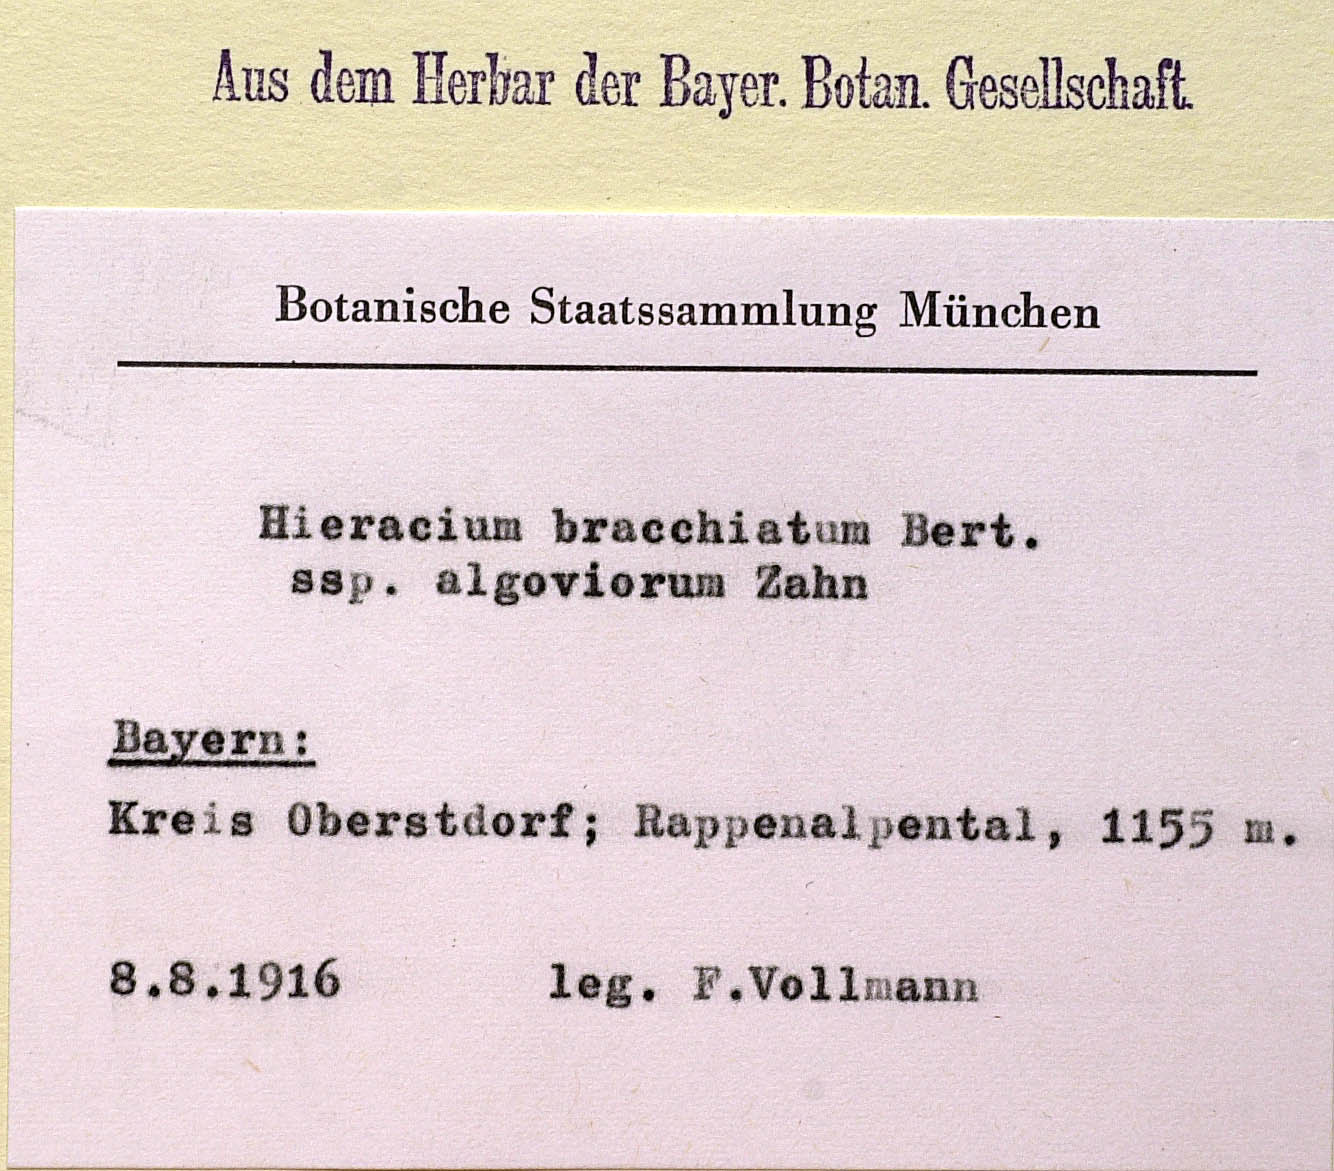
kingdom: Plantae
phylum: Tracheophyta
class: Magnoliopsida
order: Asterales
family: Asteraceae
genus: Pilosella
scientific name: Pilosella basifurca
